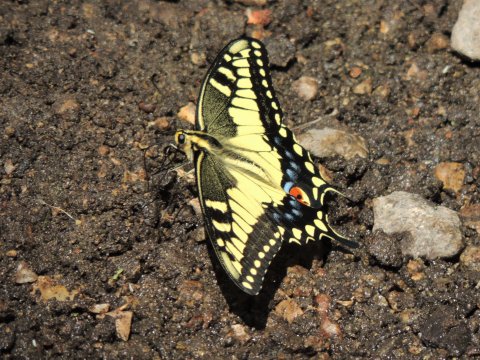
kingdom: Animalia
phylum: Arthropoda
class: Insecta
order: Lepidoptera
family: Papilionidae
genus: Papilio
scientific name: Papilio machaon
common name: Old World Swallowtail
